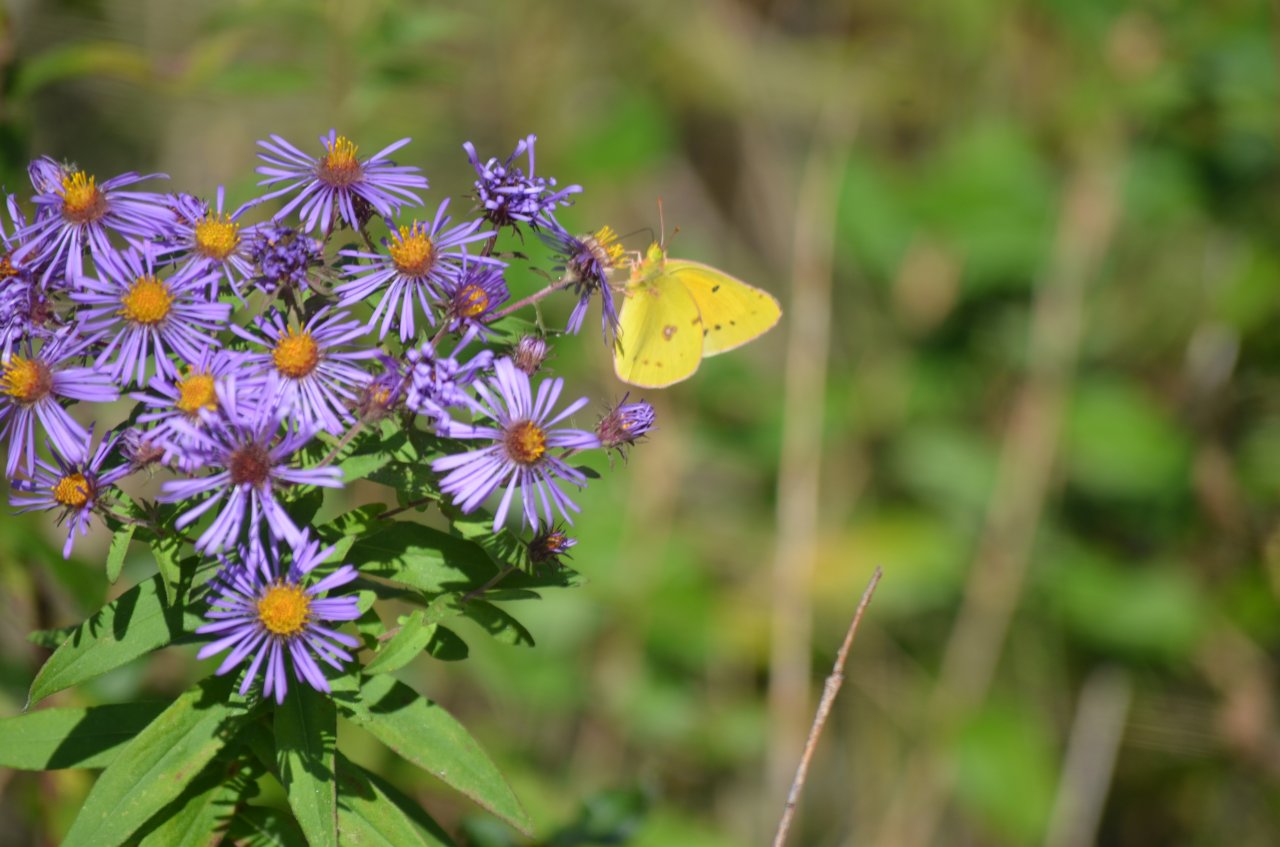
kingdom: Animalia
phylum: Arthropoda
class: Insecta
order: Lepidoptera
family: Pieridae
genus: Colias
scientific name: Colias philodice
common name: Clouded Sulphur
